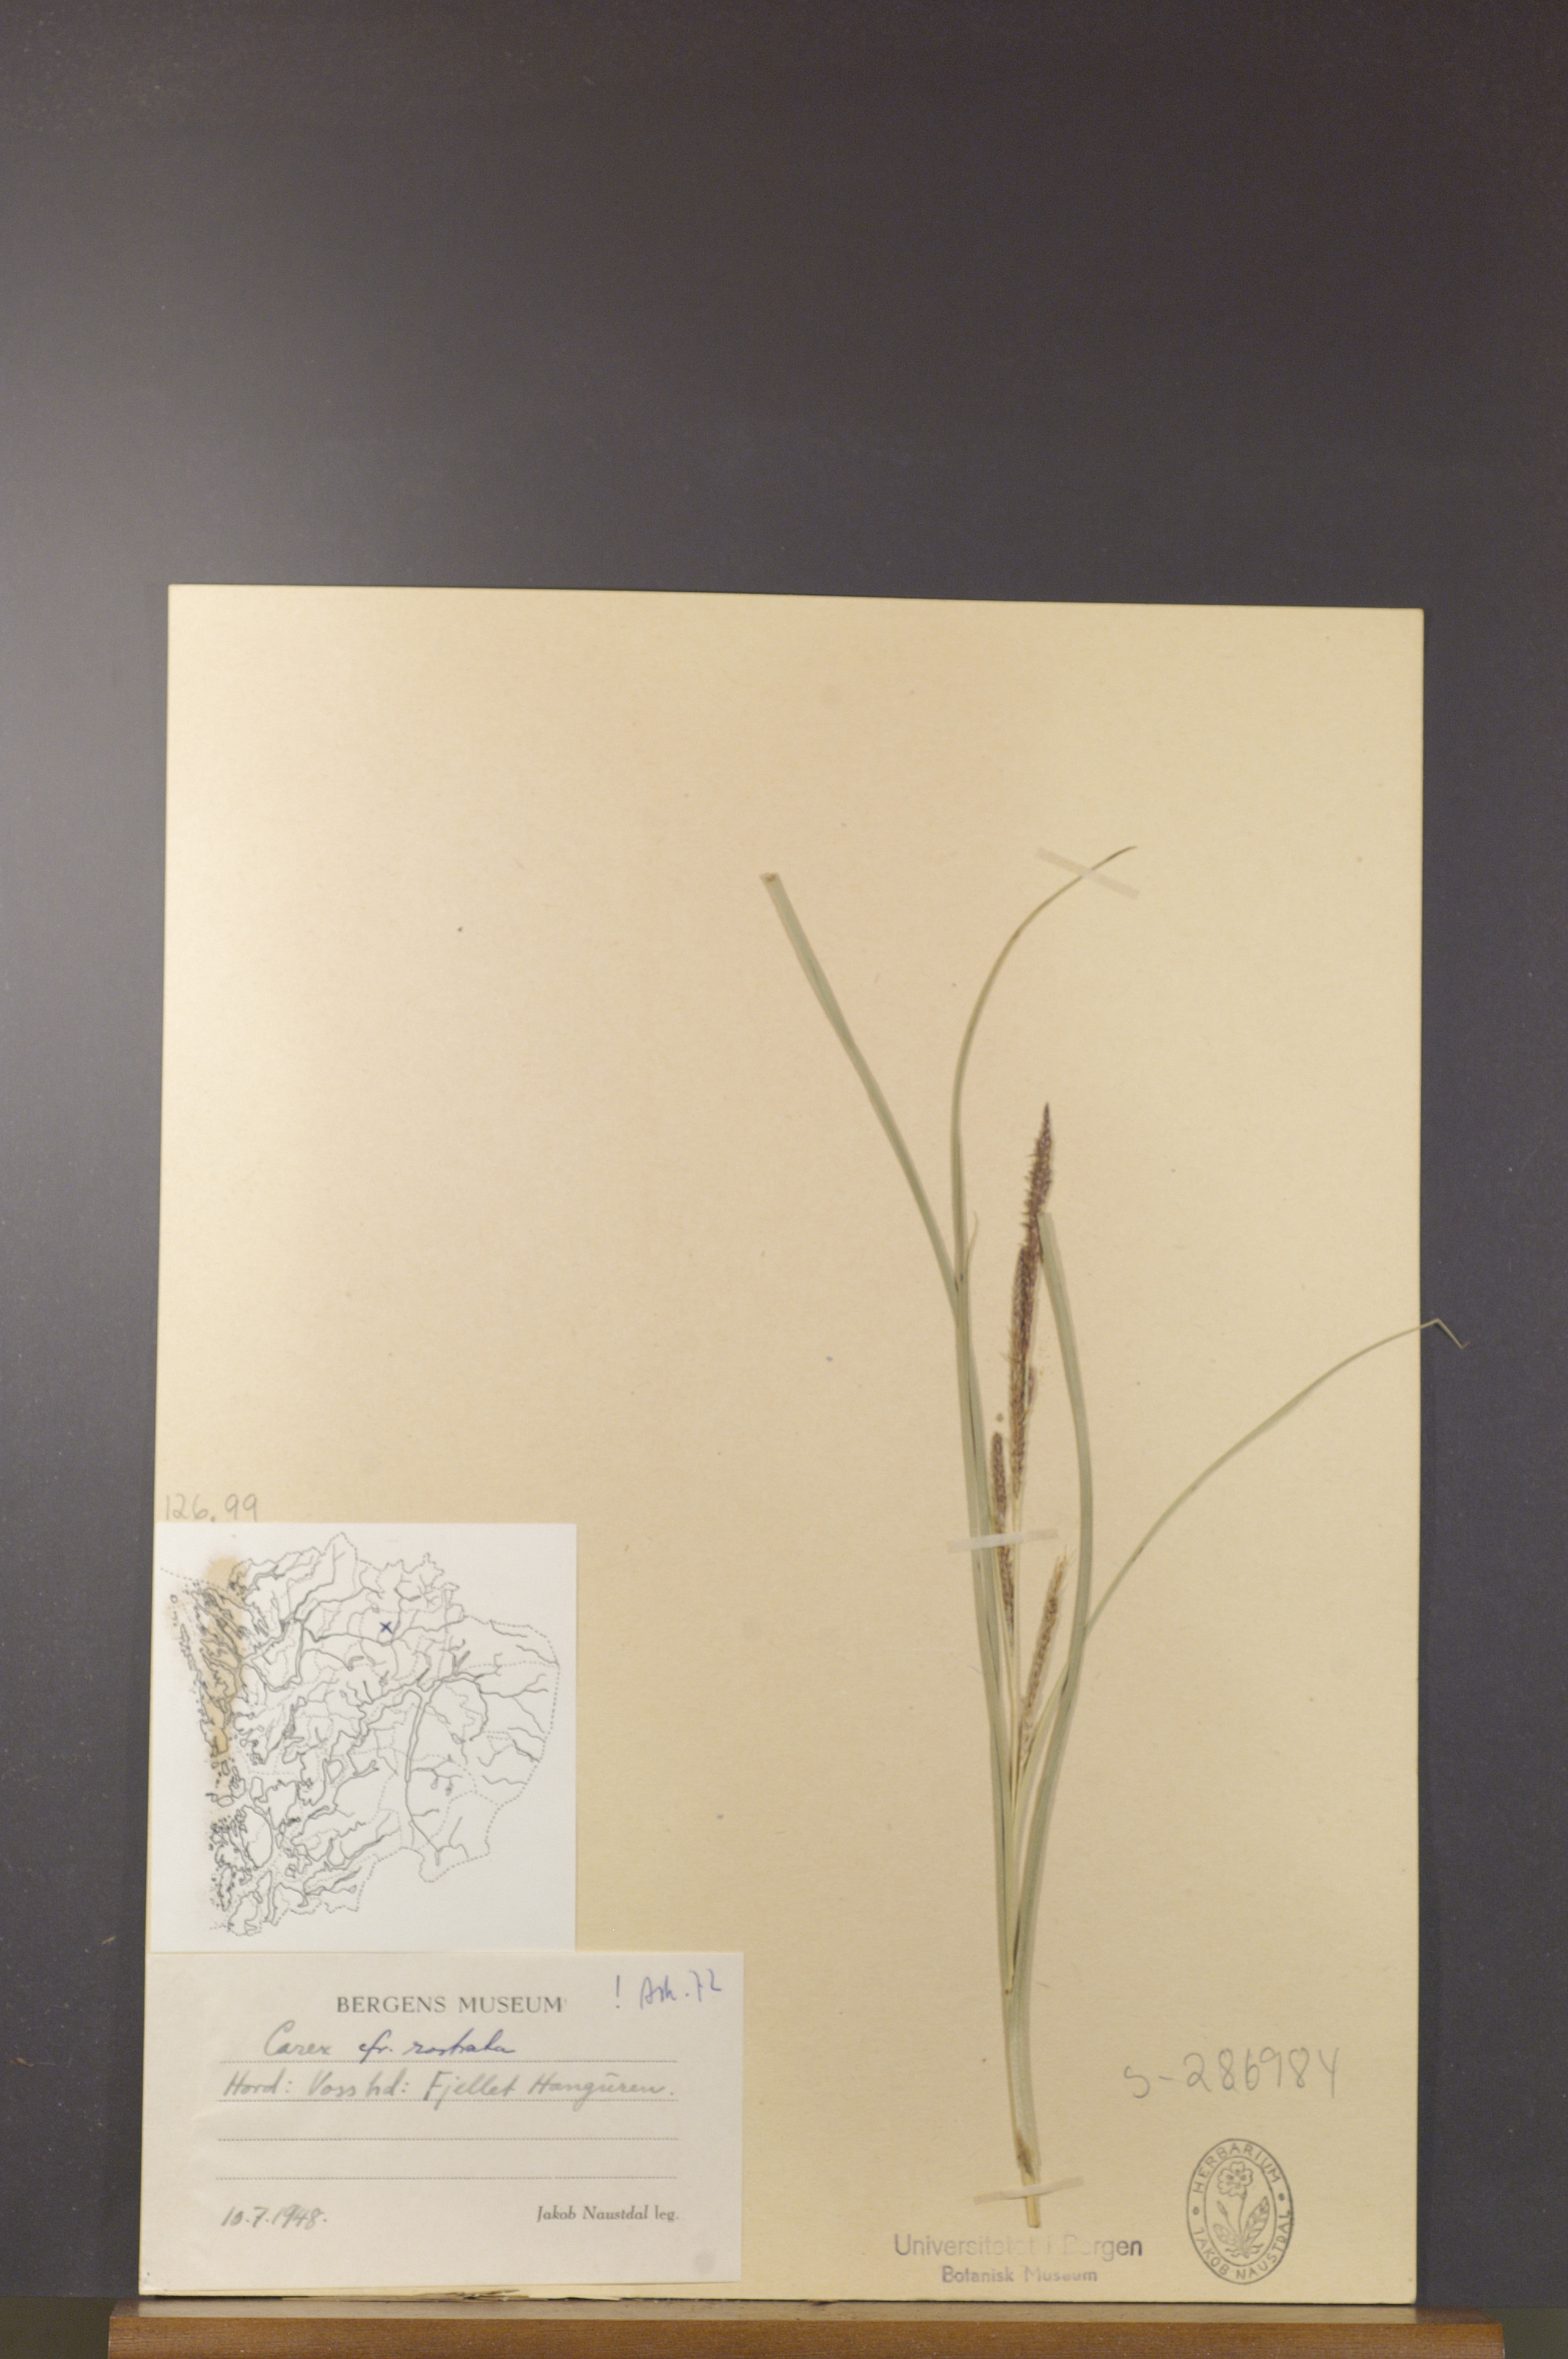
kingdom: Plantae
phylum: Tracheophyta
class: Liliopsida
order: Poales
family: Cyperaceae
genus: Carex
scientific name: Carex rostrata
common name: Bottle sedge
